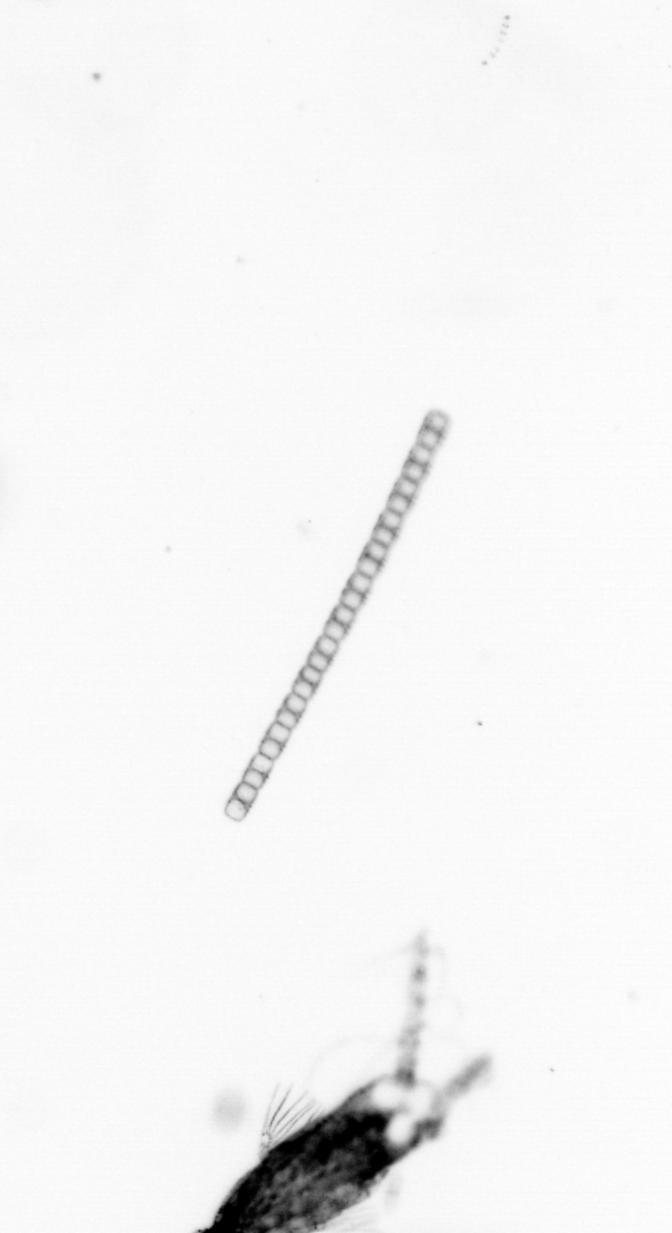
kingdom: Chromista
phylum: Ochrophyta
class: Bacillariophyceae
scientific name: Bacillariophyceae
